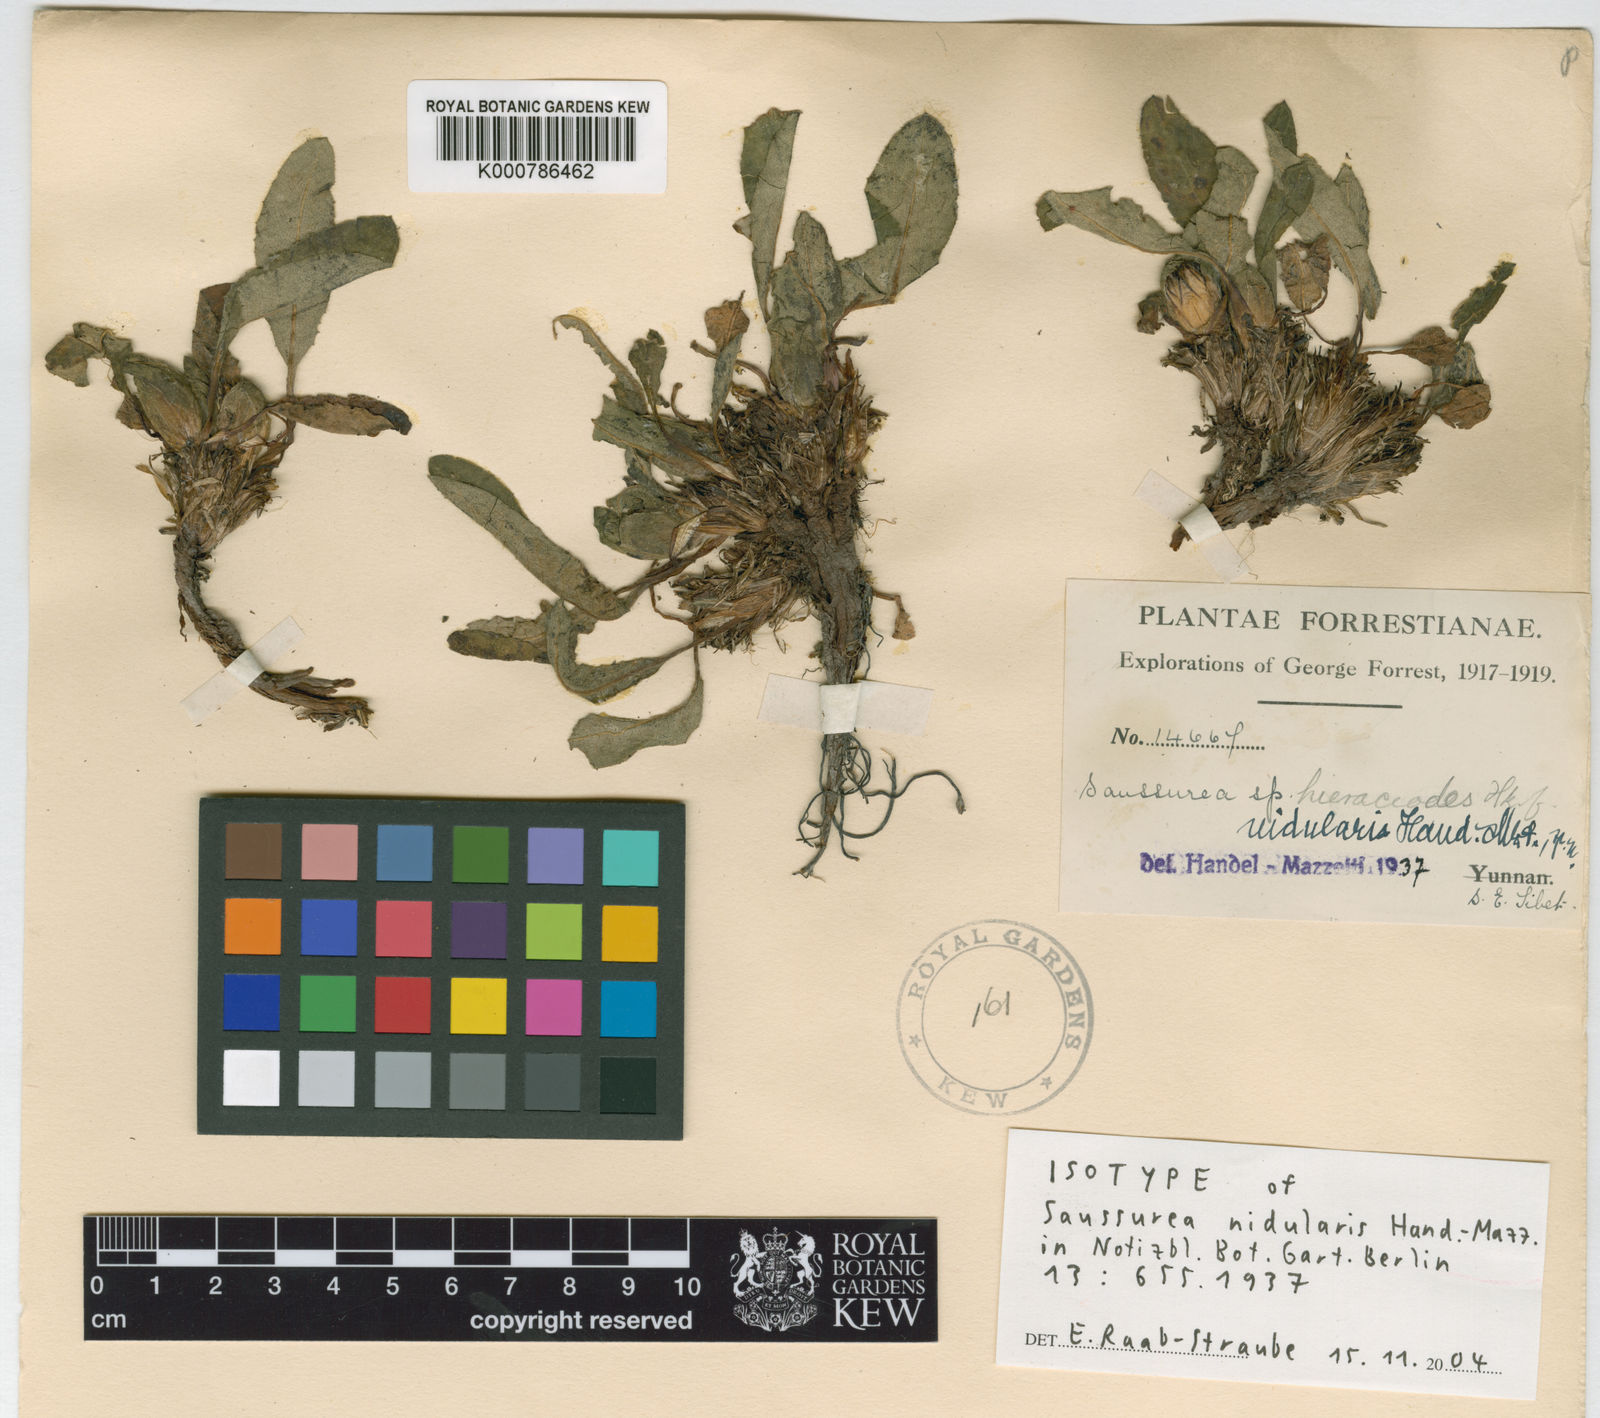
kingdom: Plantae
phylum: Tracheophyta
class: Magnoliopsida
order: Asterales
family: Asteraceae
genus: Saussurea
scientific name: Saussurea polycolea
